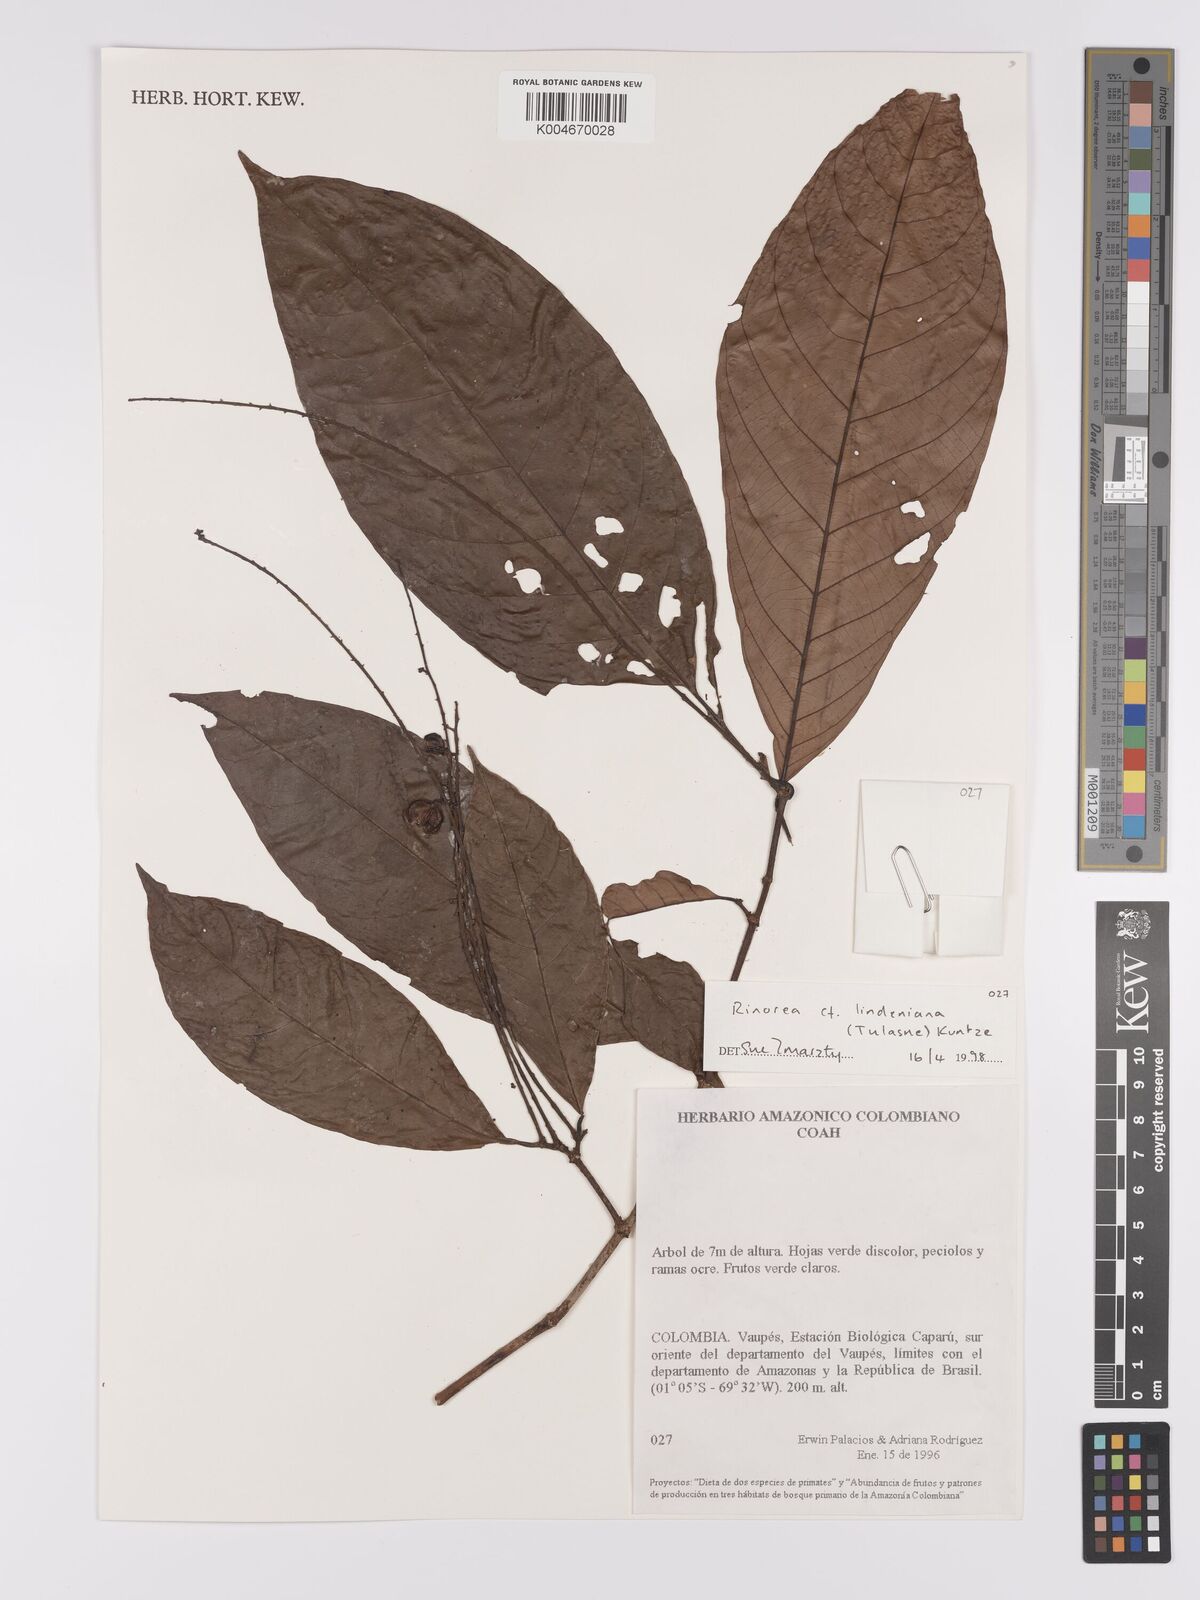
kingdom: Plantae
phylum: Tracheophyta
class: Magnoliopsida
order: Malpighiales
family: Violaceae
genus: Rinorea
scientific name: Rinorea lindeniana
